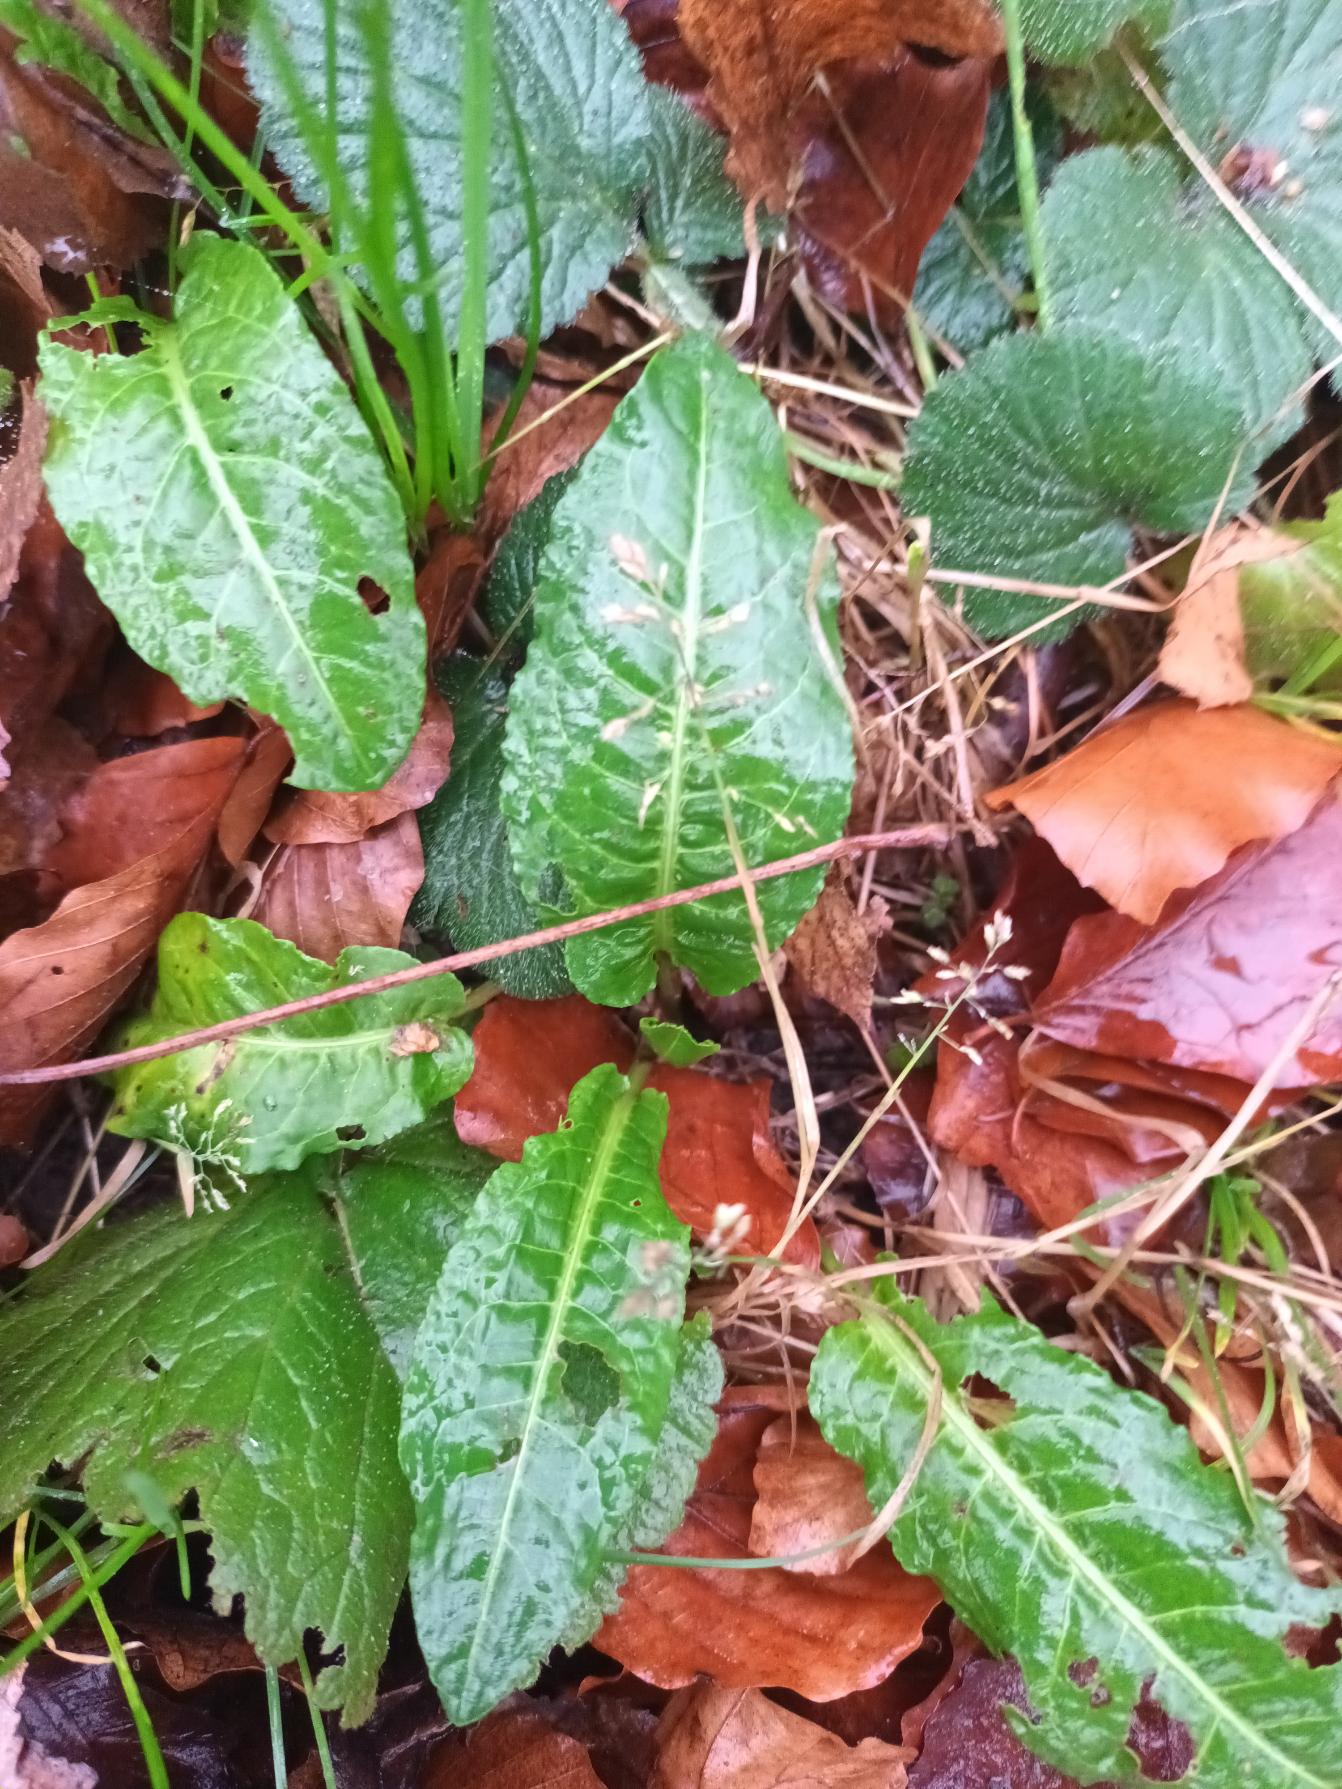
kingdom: Plantae
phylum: Tracheophyta
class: Magnoliopsida
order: Caryophyllales
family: Polygonaceae
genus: Rumex
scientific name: Rumex sanguineus
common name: Skov-skræppe
